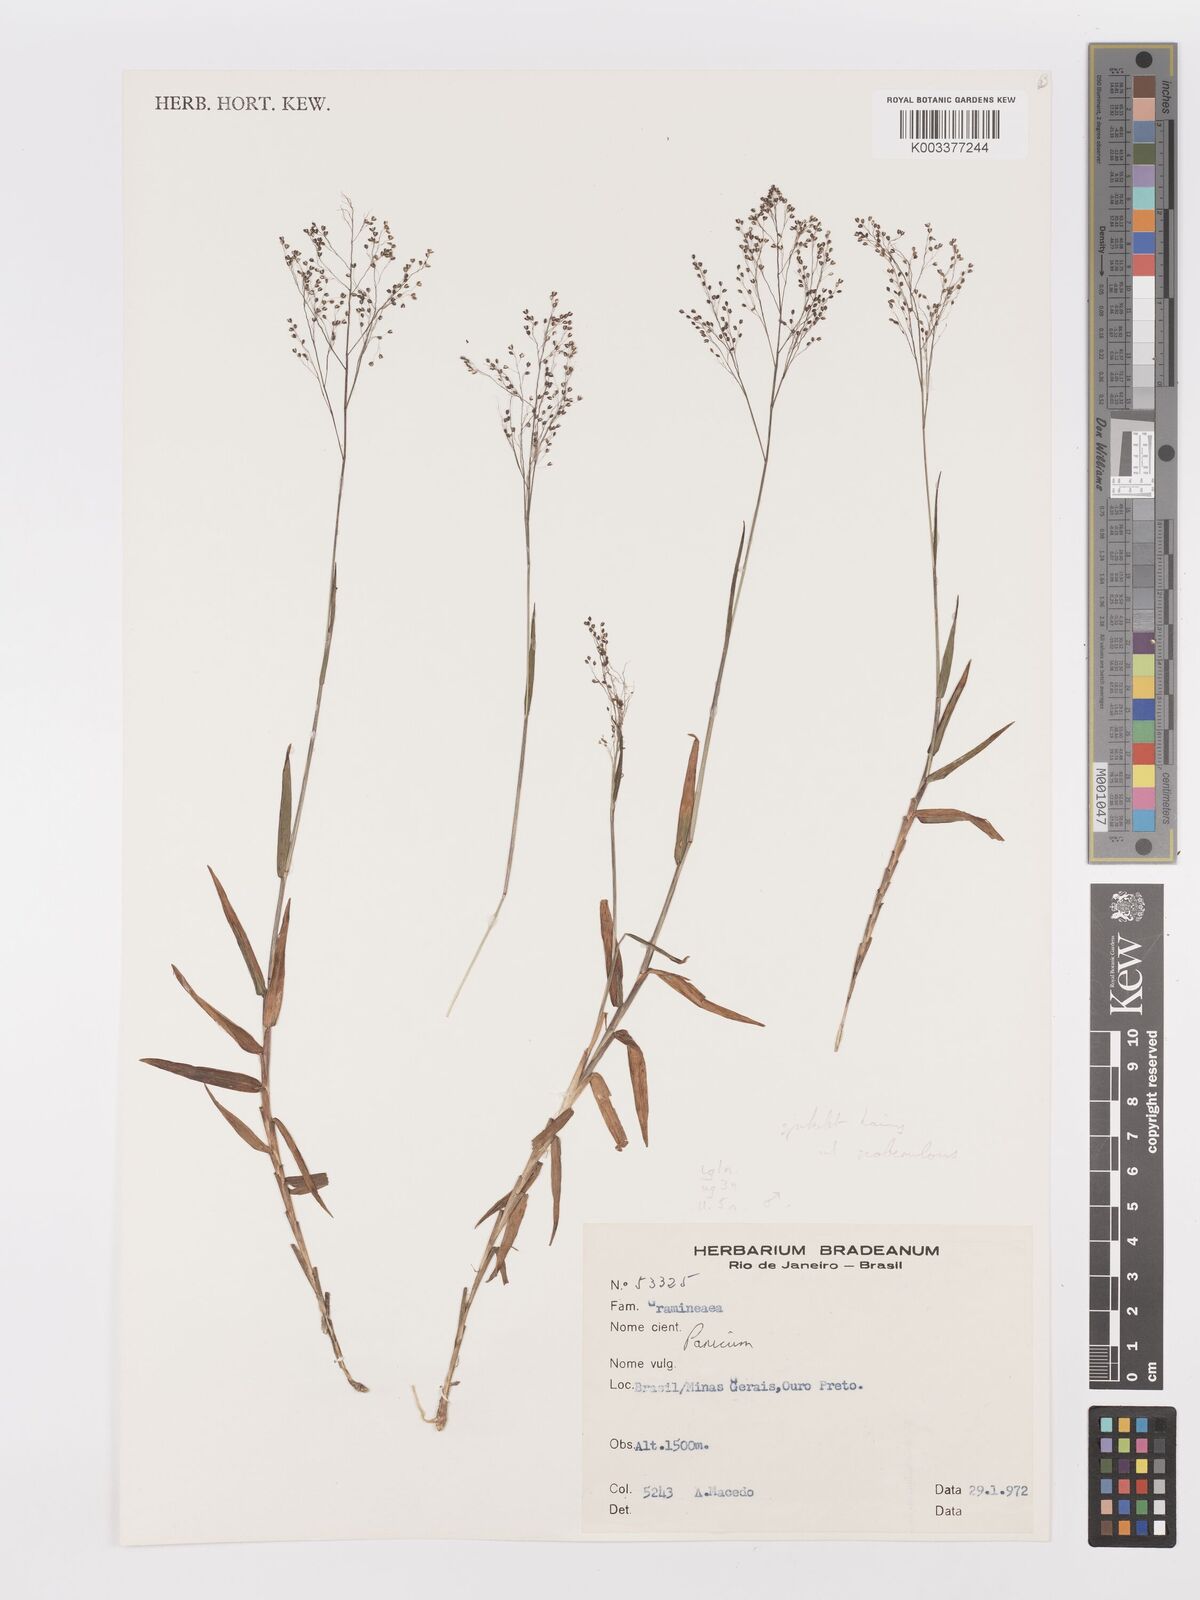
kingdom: Plantae
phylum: Tracheophyta
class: Liliopsida
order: Poales
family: Poaceae
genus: Trichanthecium
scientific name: Trichanthecium pseudisachne
